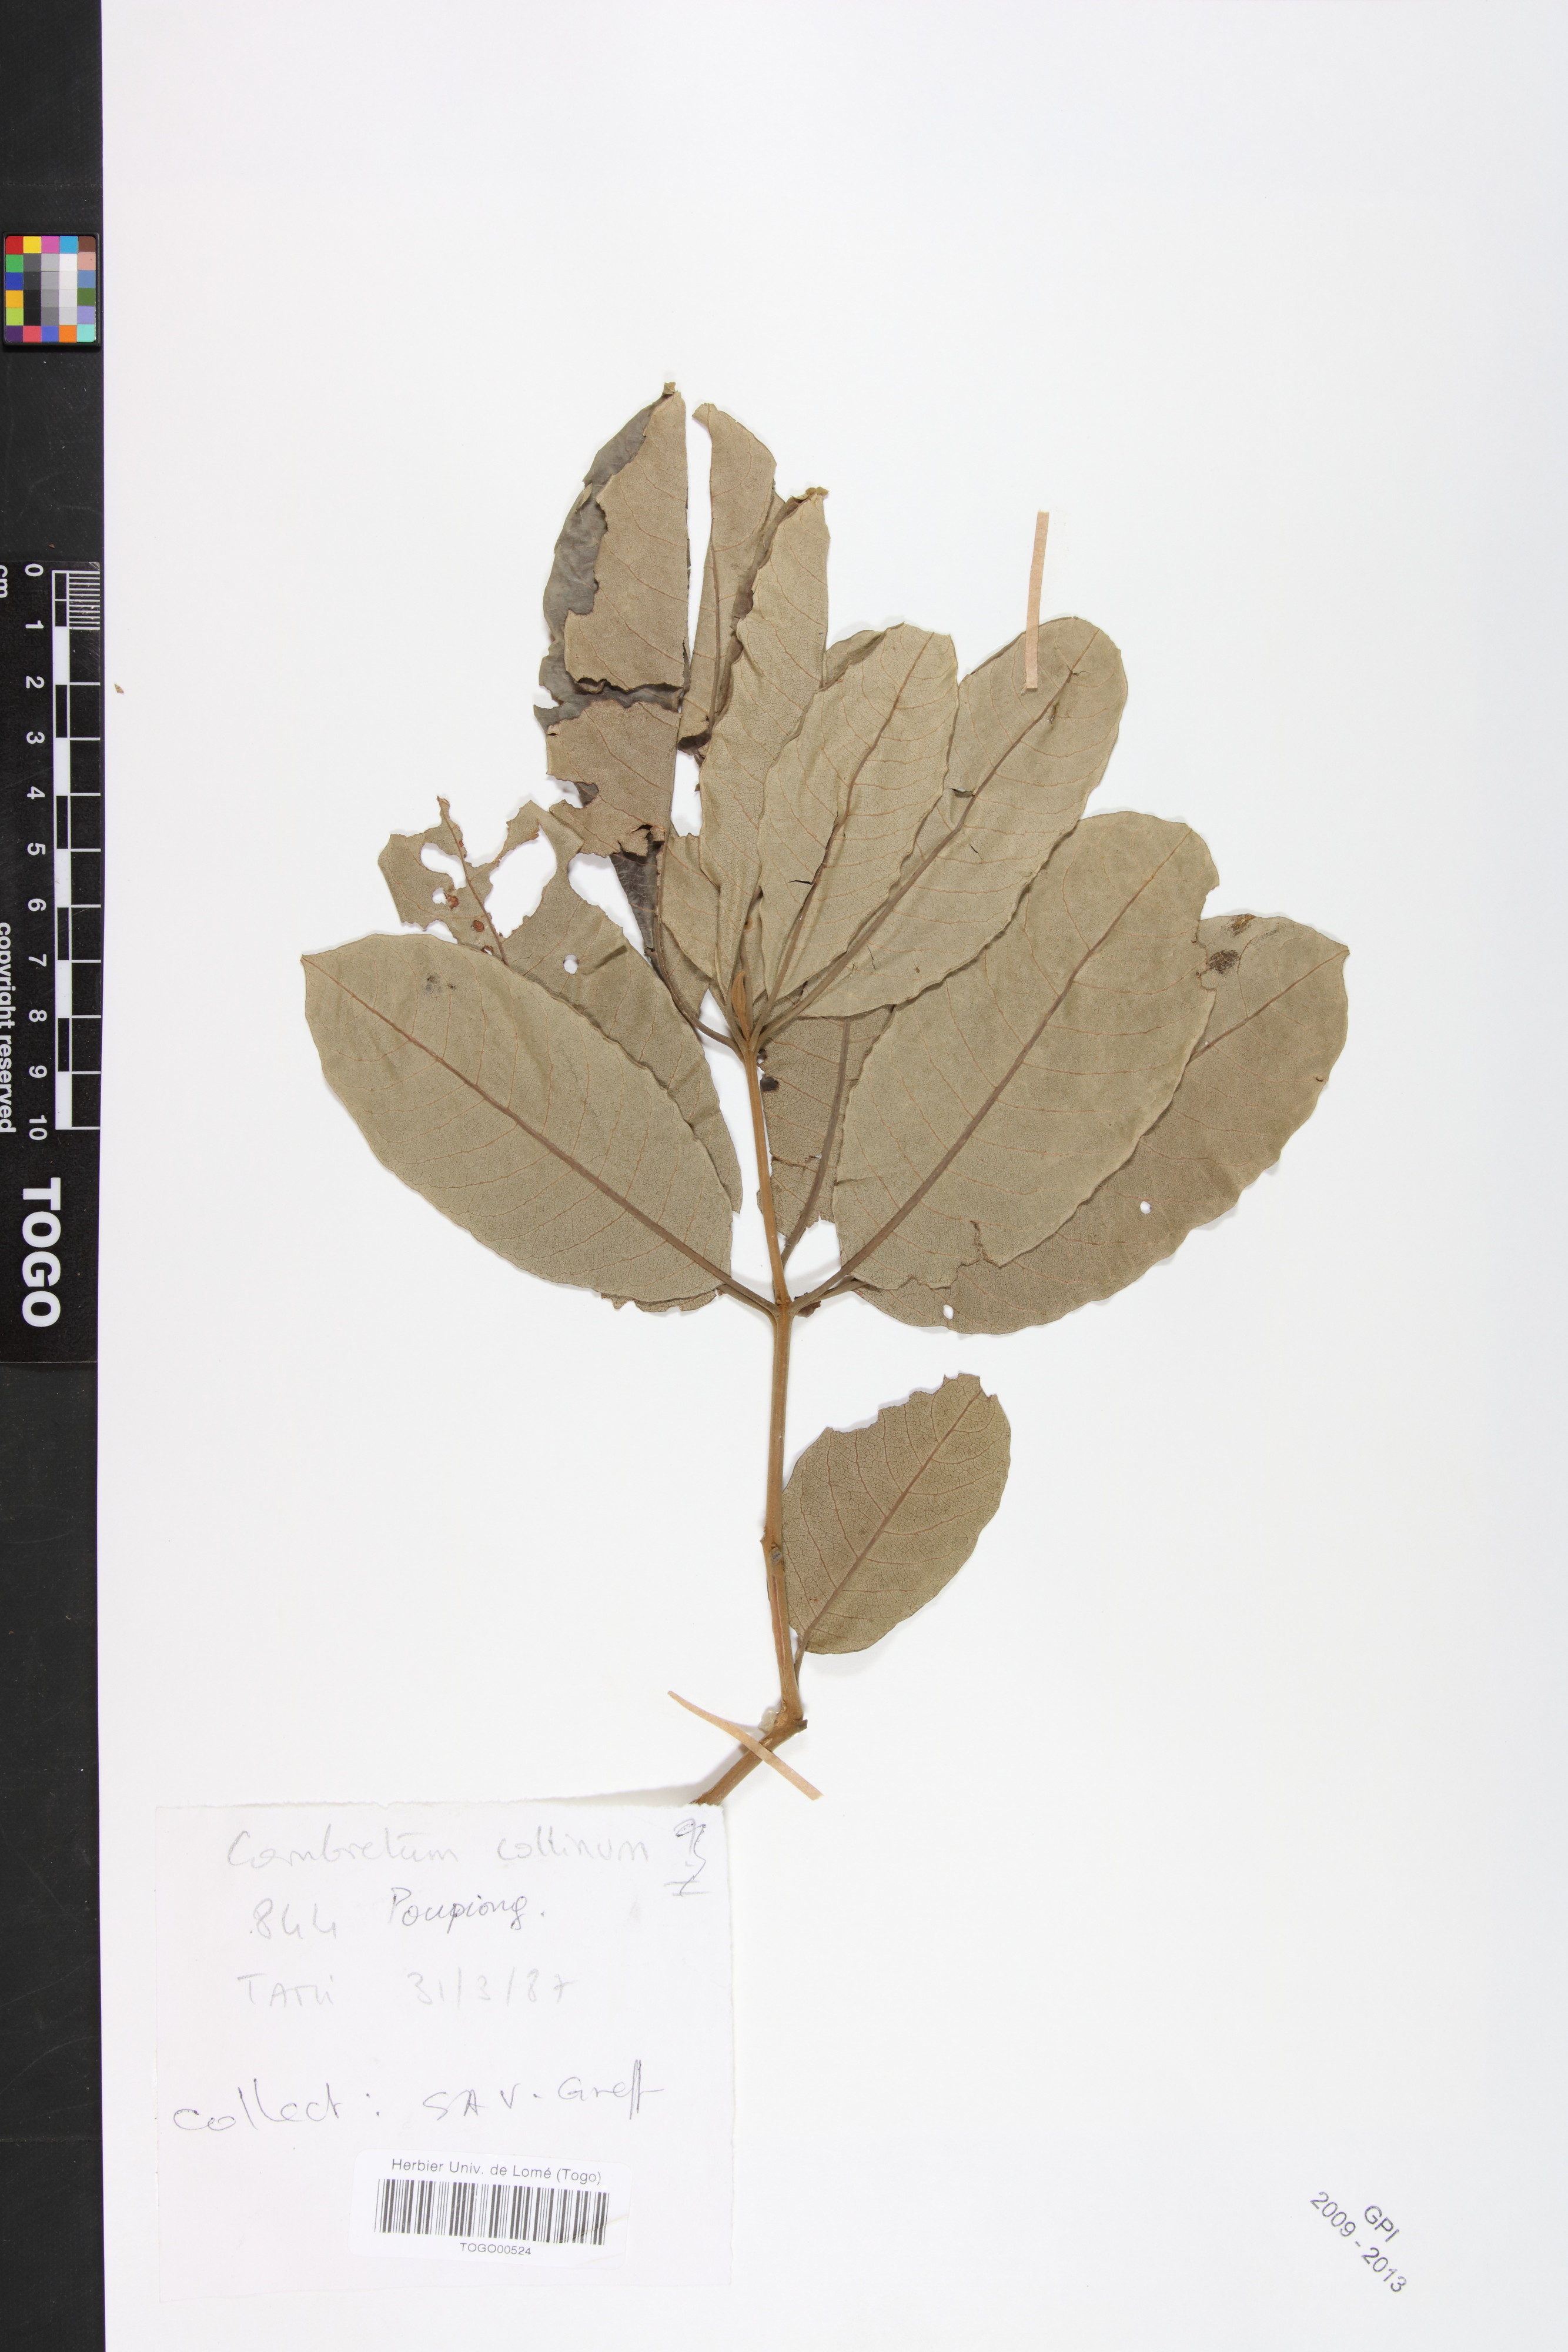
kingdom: Plantae
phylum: Tracheophyta
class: Magnoliopsida
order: Myrtales
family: Combretaceae
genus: Combretum
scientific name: Combretum collinum
